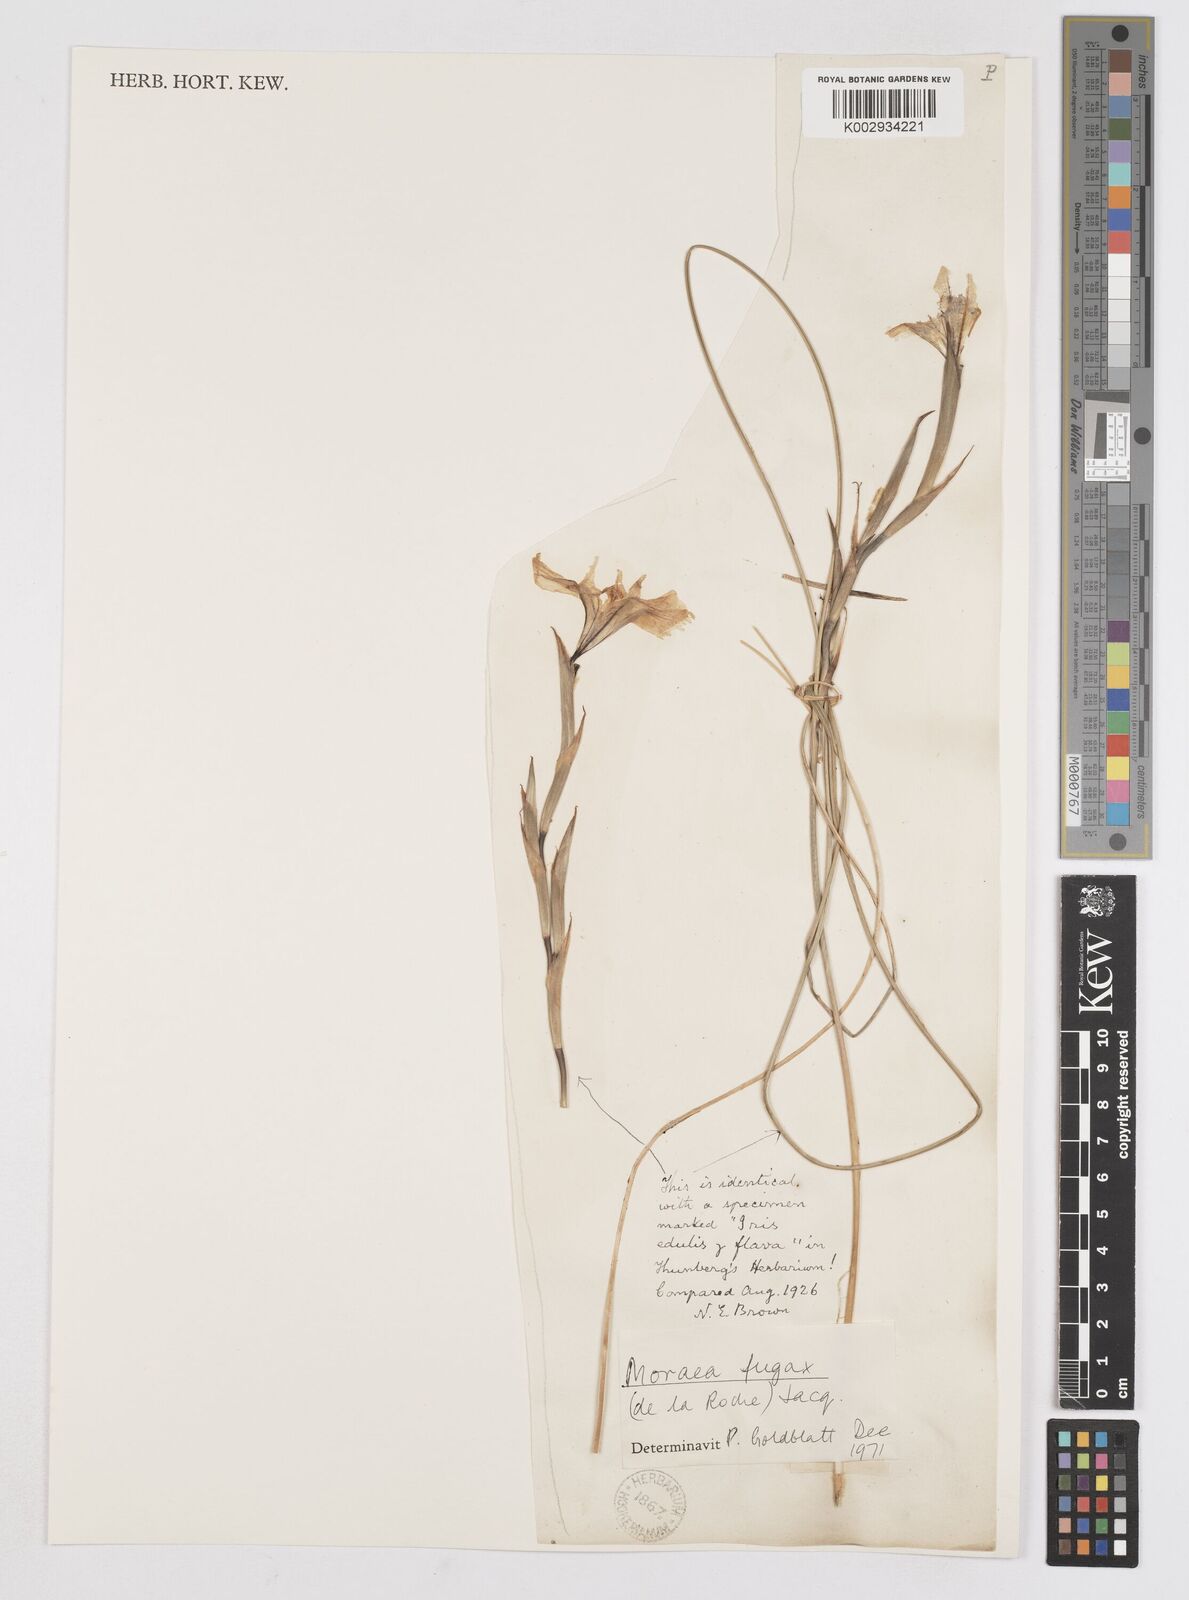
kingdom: Plantae
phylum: Tracheophyta
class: Liliopsida
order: Asparagales
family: Iridaceae
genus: Moraea
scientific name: Moraea fugax
